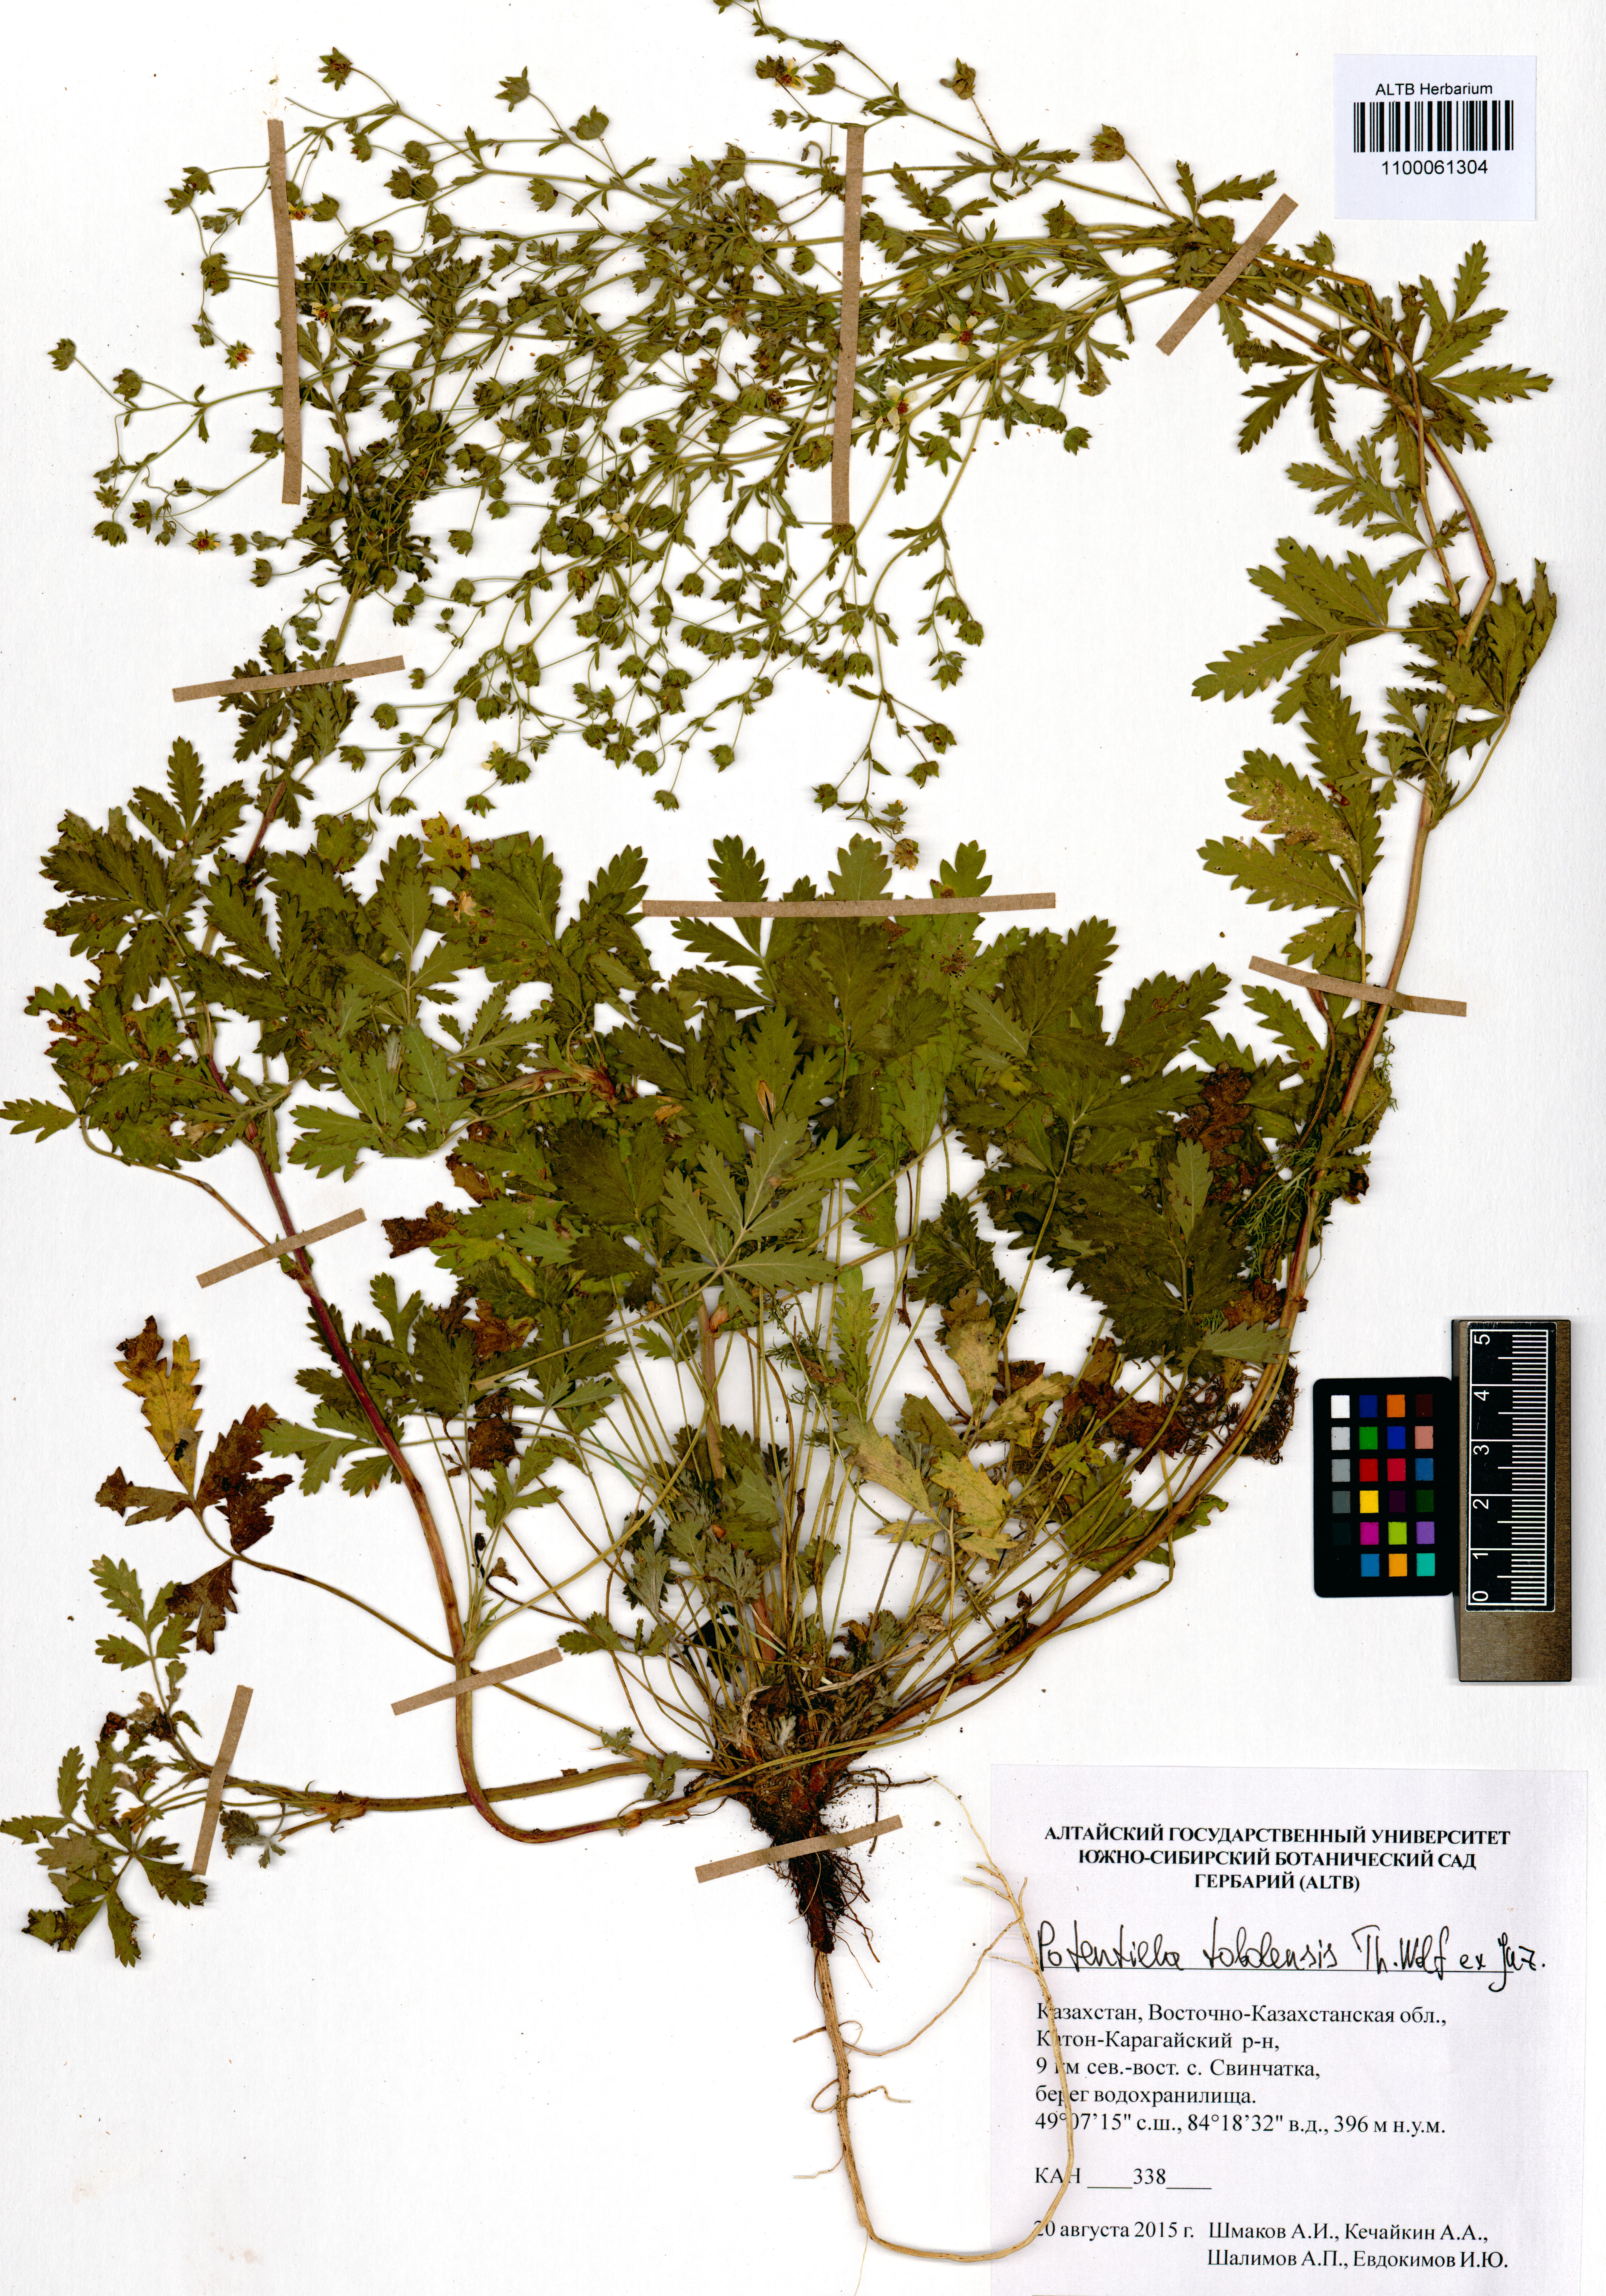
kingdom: Plantae
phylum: Tracheophyta
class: Magnoliopsida
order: Rosales
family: Rosaceae
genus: Potentilla
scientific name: Potentilla tobolensis
